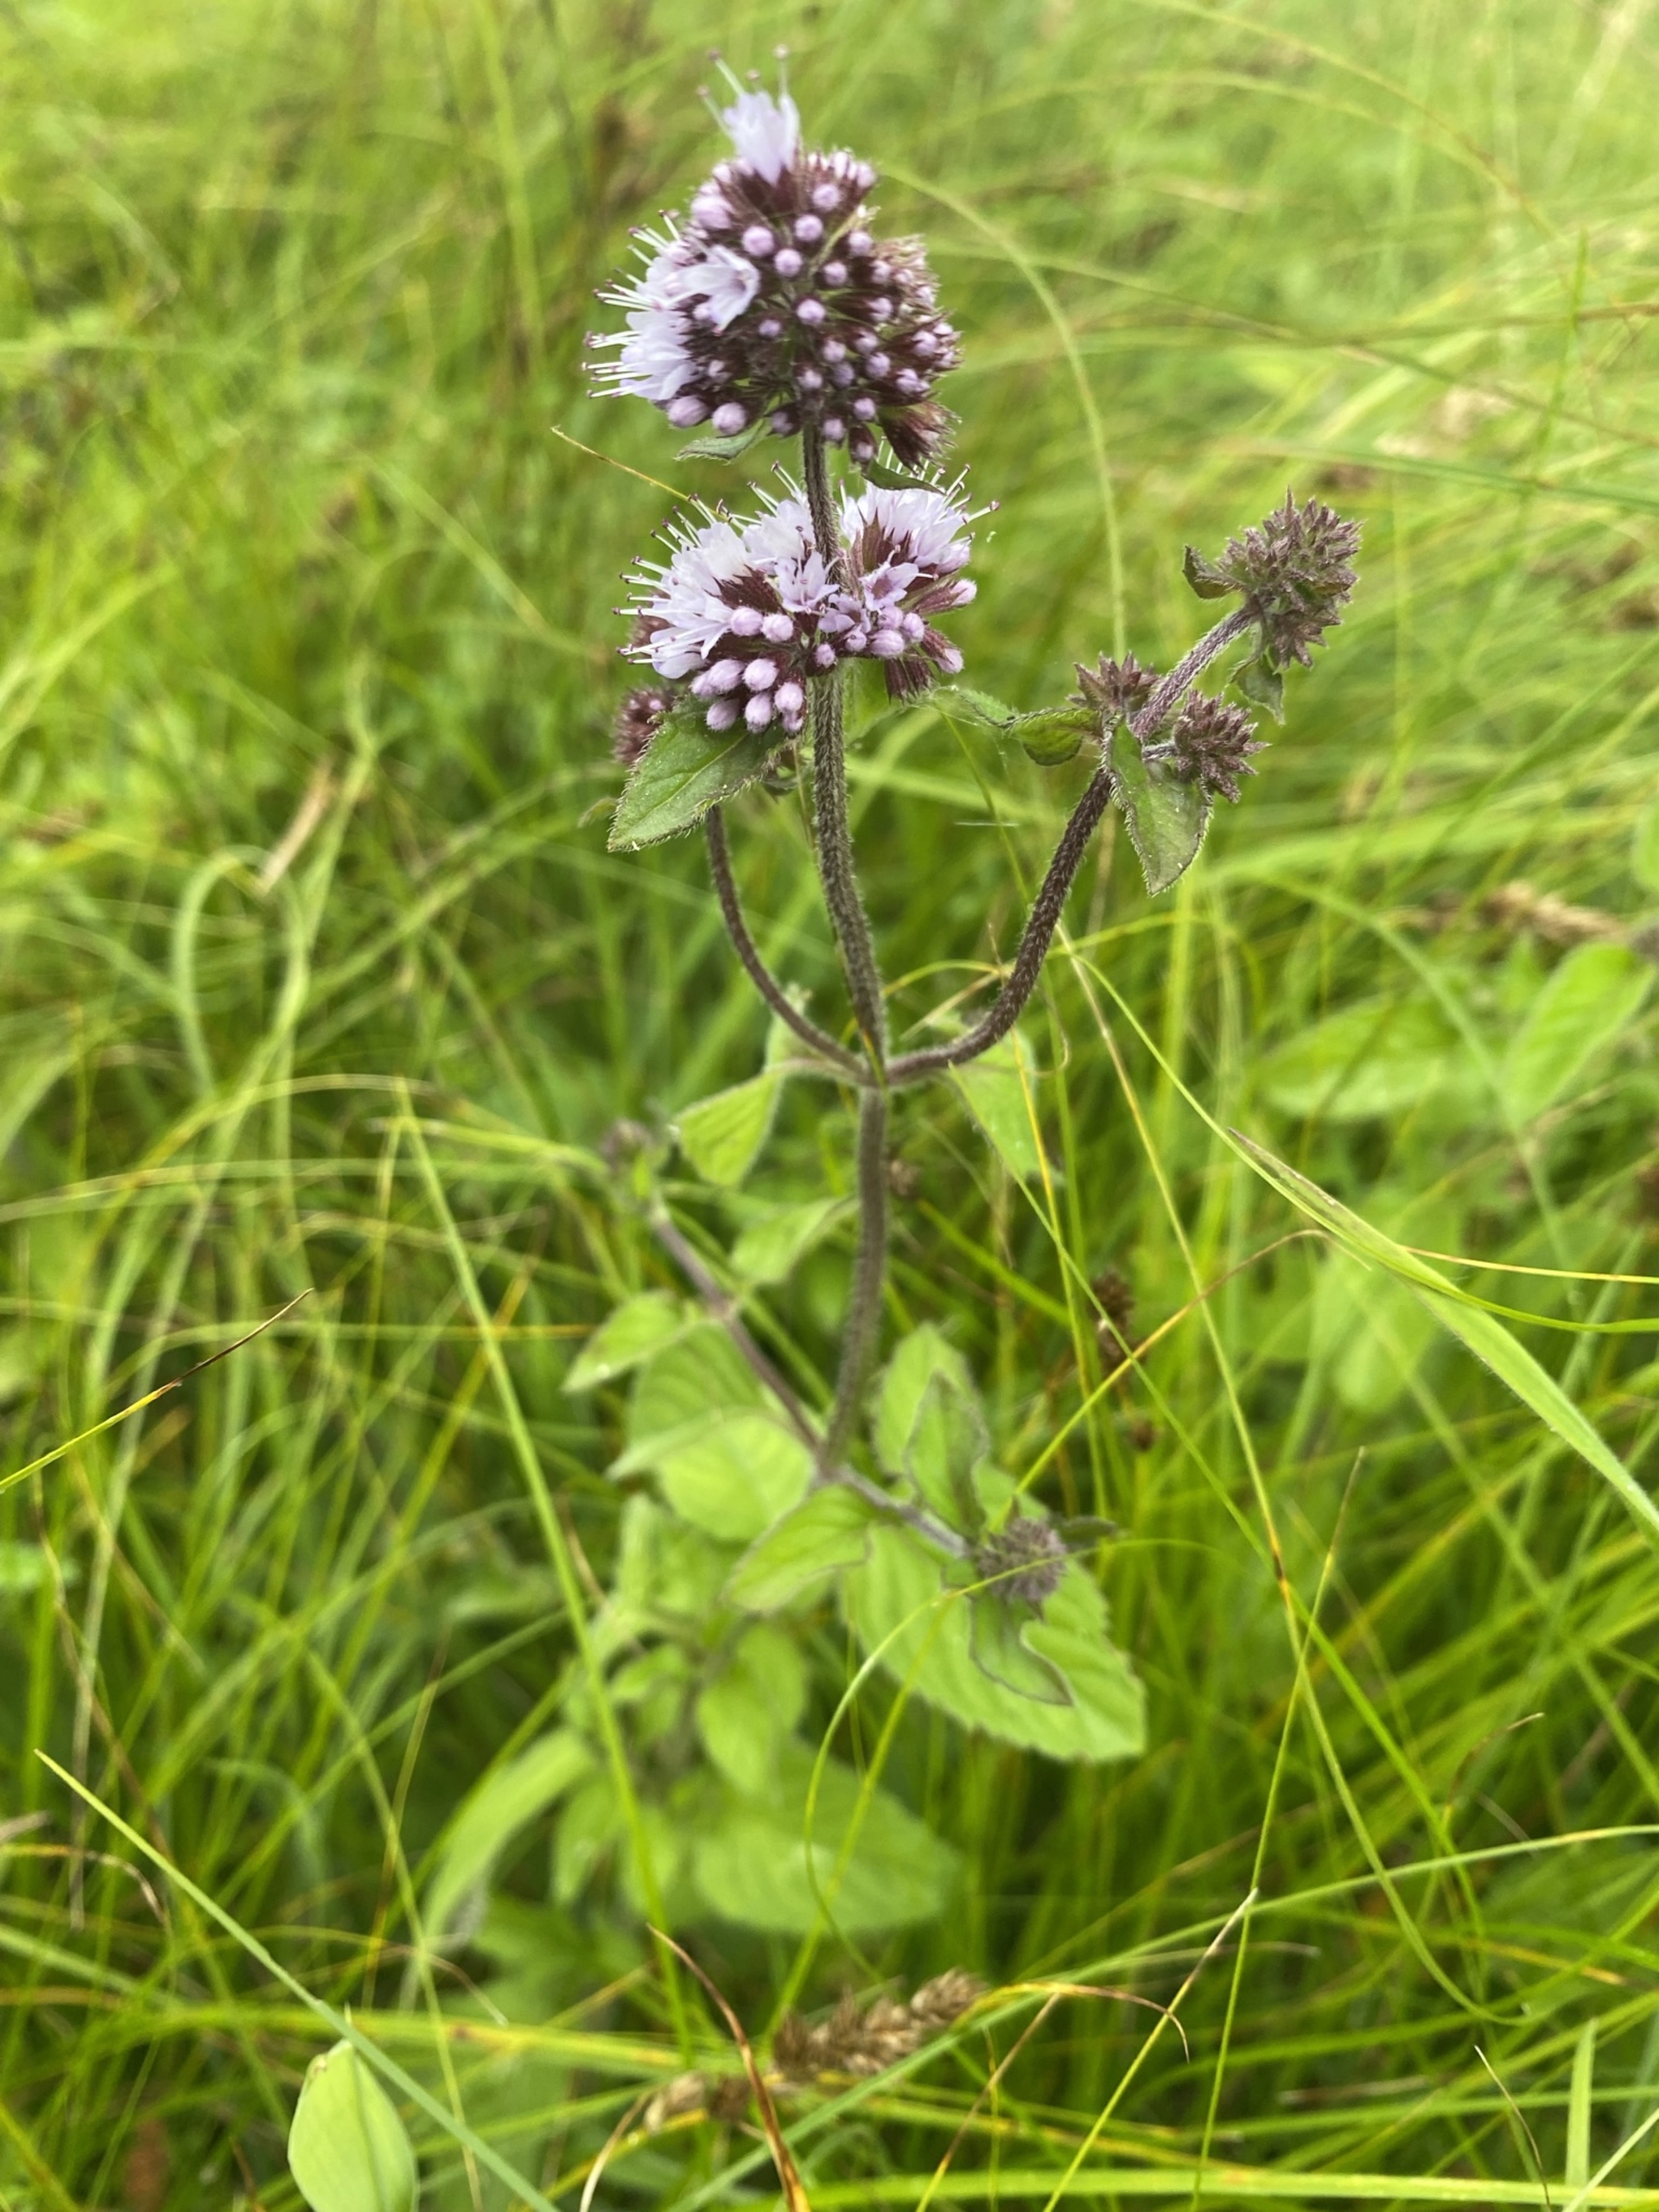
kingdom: Plantae
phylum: Tracheophyta
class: Magnoliopsida
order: Lamiales
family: Lamiaceae
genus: Mentha
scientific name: Mentha aquatica
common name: Vand-mynte
